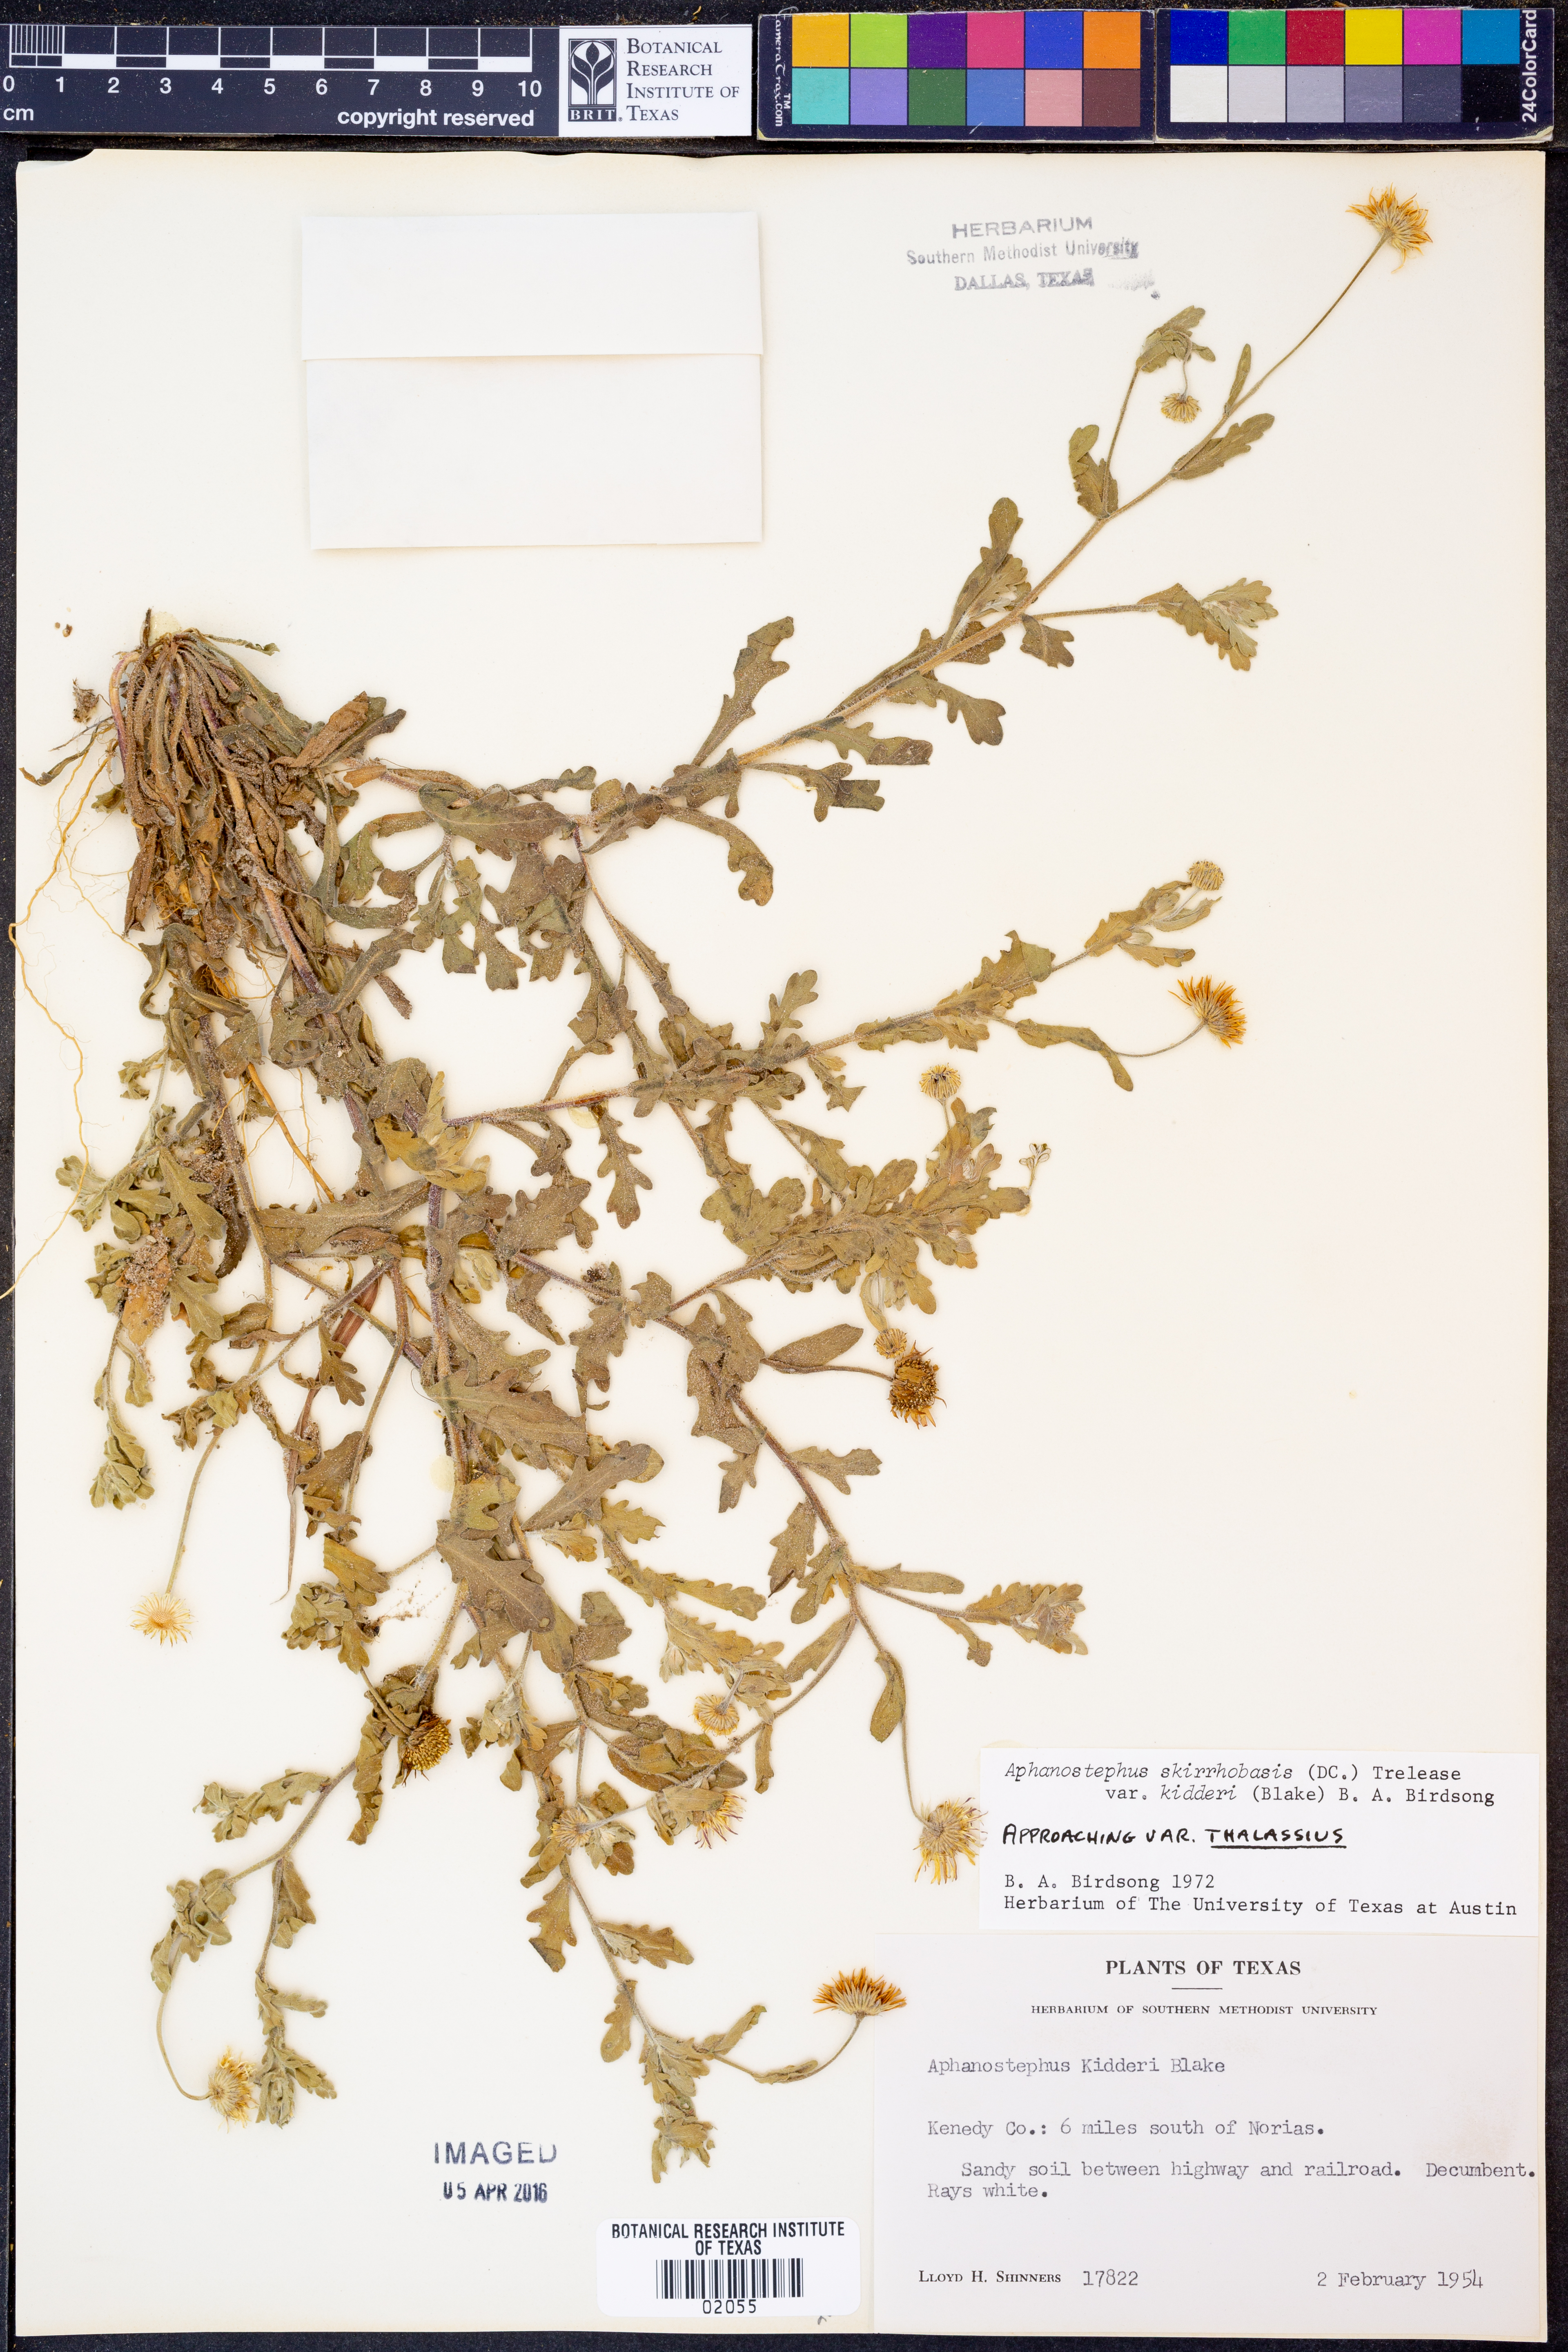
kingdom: Plantae
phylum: Tracheophyta
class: Magnoliopsida
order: Asterales
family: Asteraceae
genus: Aphanostephus
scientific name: Aphanostephus skirrhobasis
